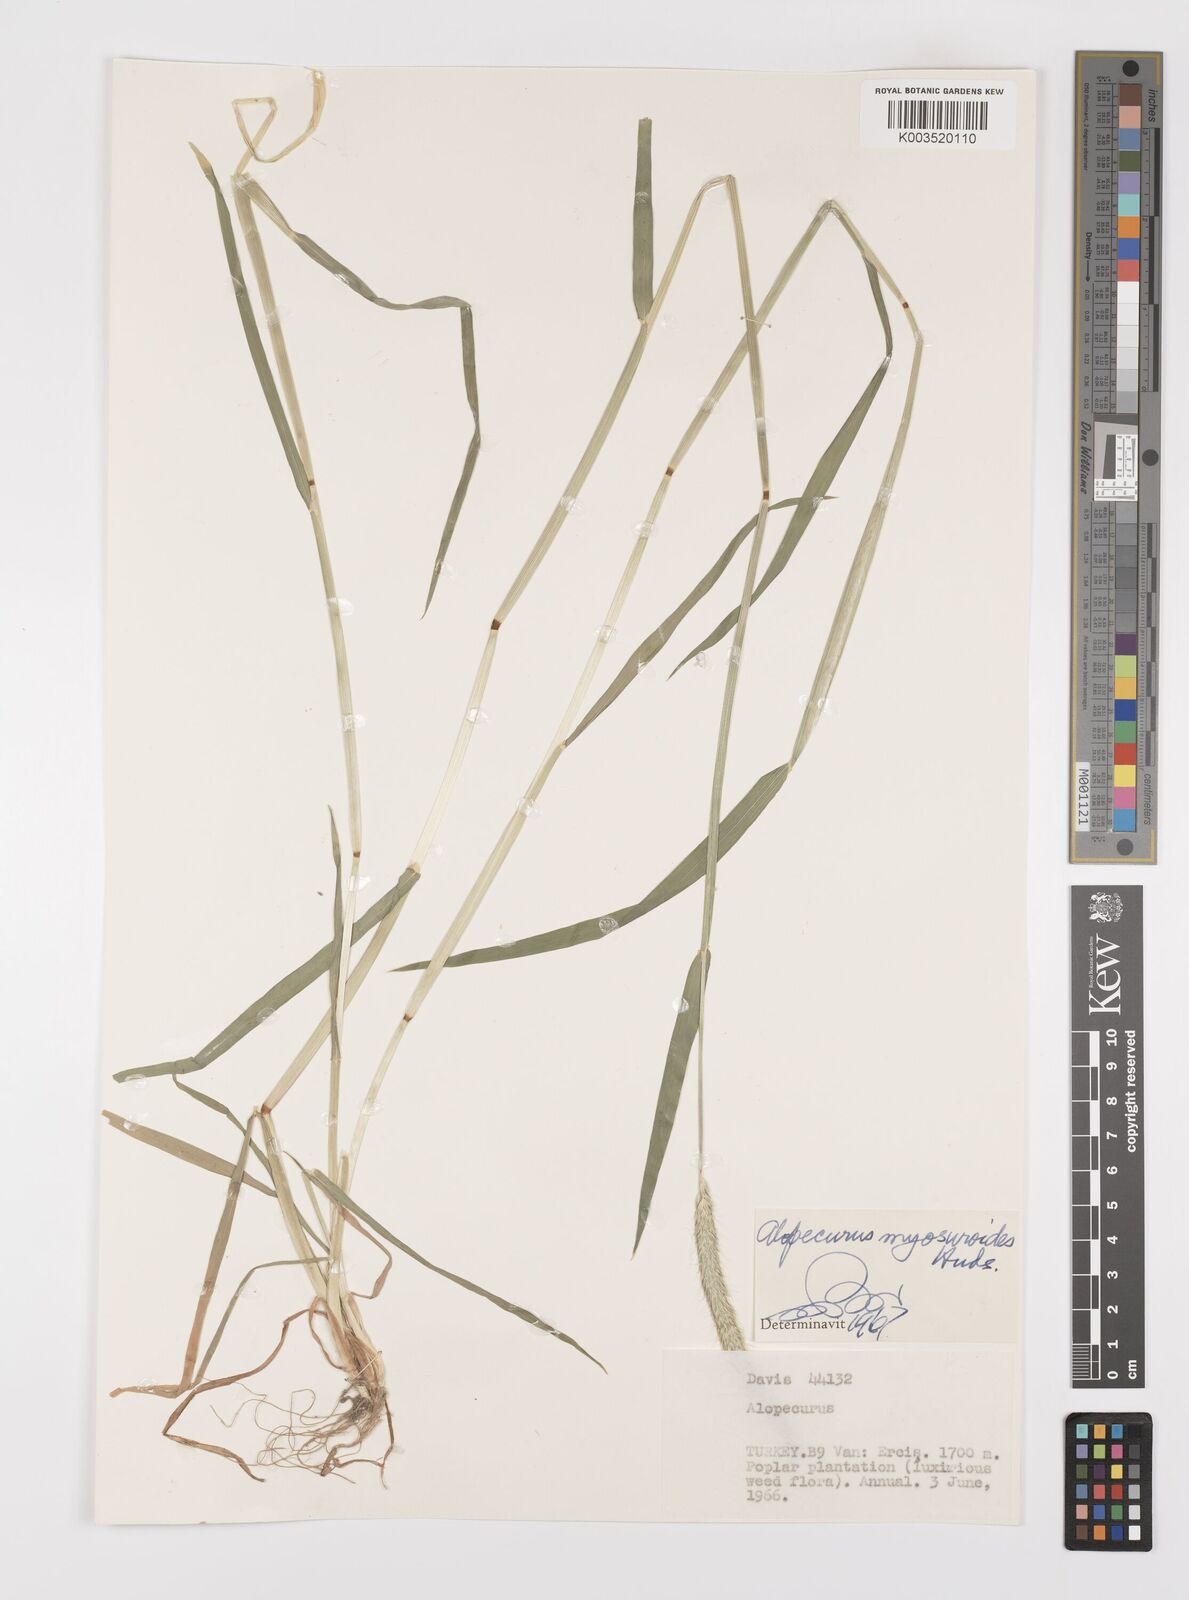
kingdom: Plantae
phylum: Tracheophyta
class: Liliopsida
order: Poales
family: Poaceae
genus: Alopecurus
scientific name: Alopecurus myosuroides
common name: Black-grass
